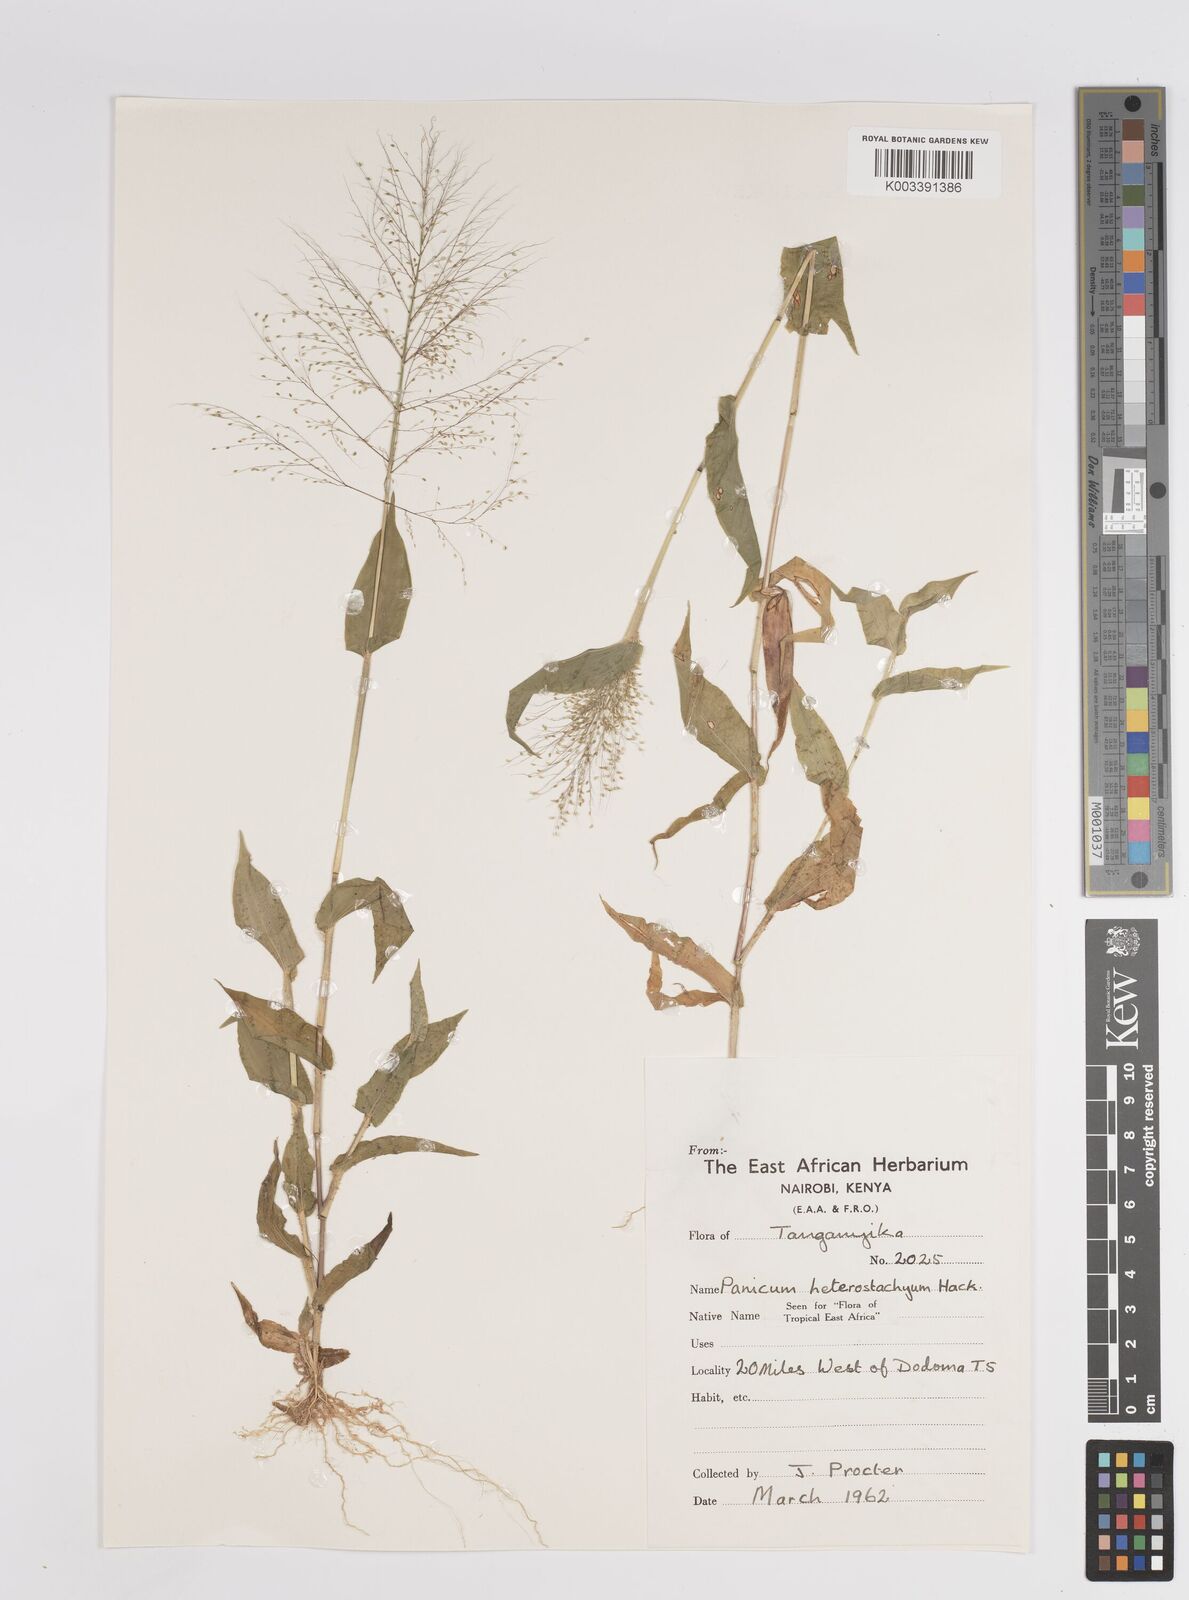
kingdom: Plantae
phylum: Tracheophyta
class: Liliopsida
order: Poales
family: Poaceae
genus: Panicum
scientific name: Panicum hirtum
